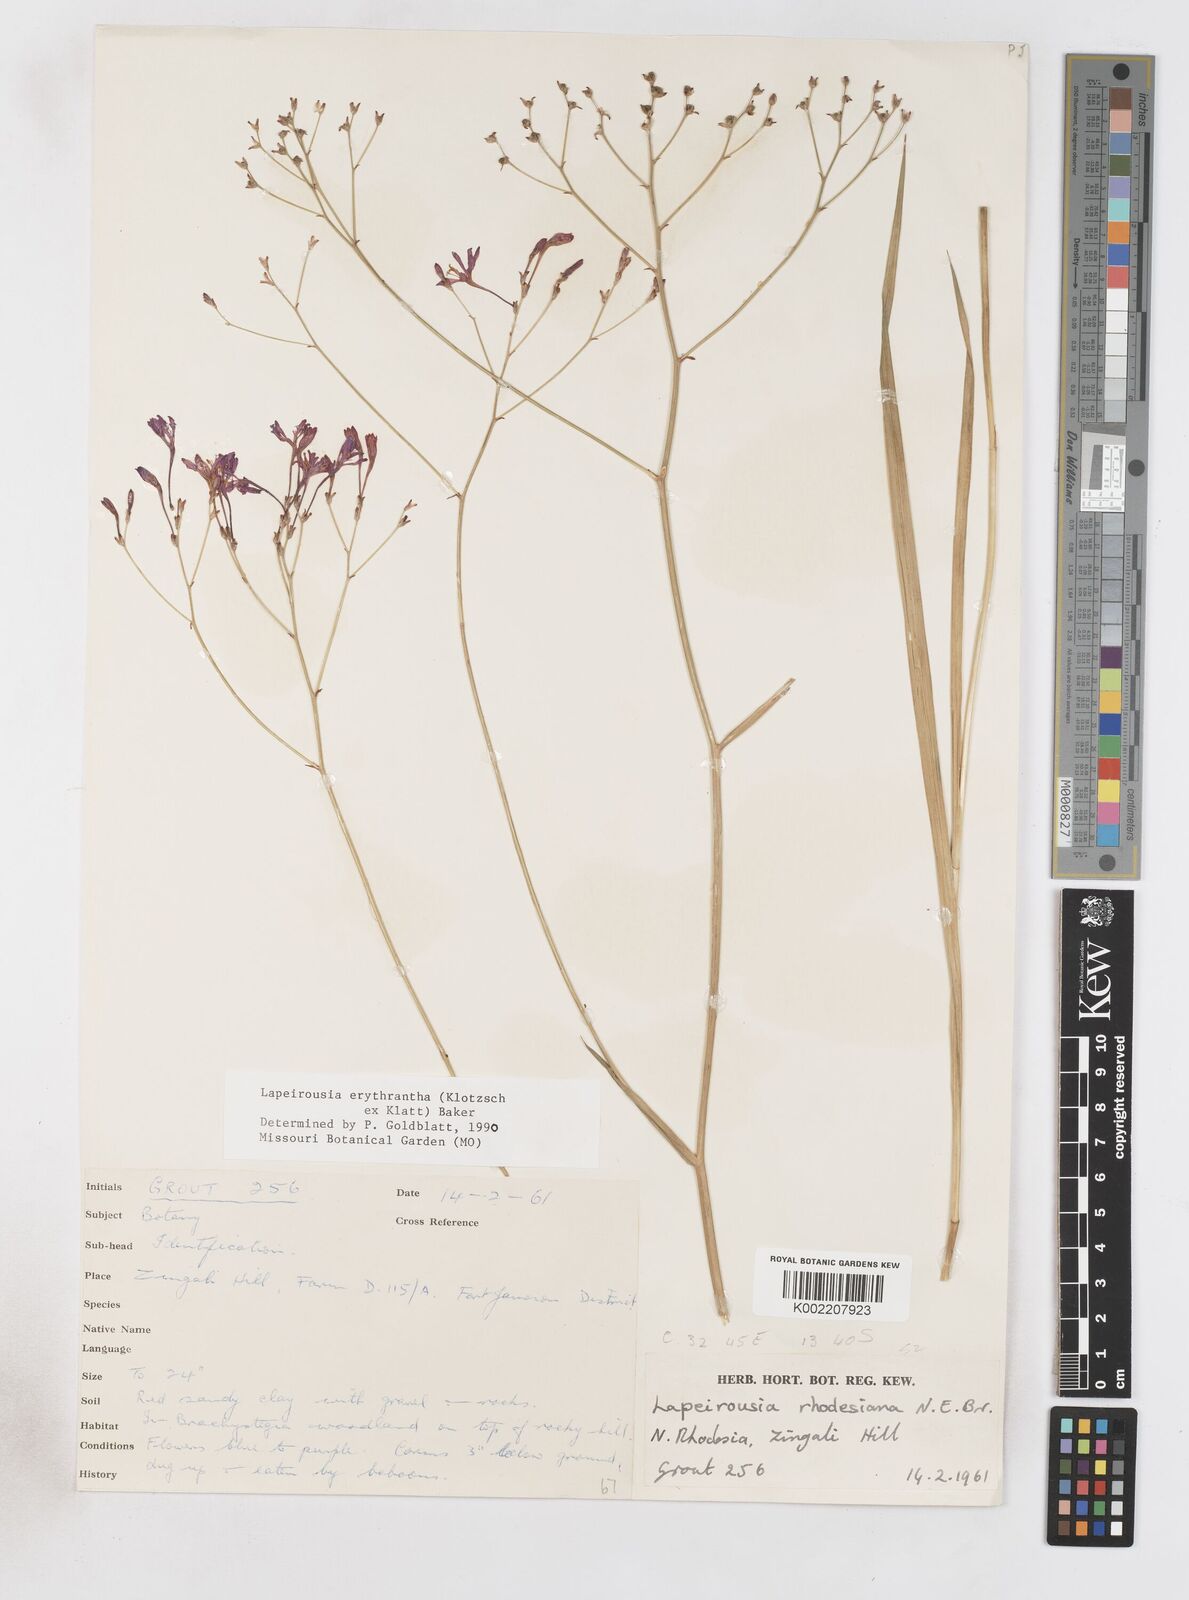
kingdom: Plantae
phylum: Tracheophyta
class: Liliopsida
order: Asparagales
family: Iridaceae
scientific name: Iridaceae
